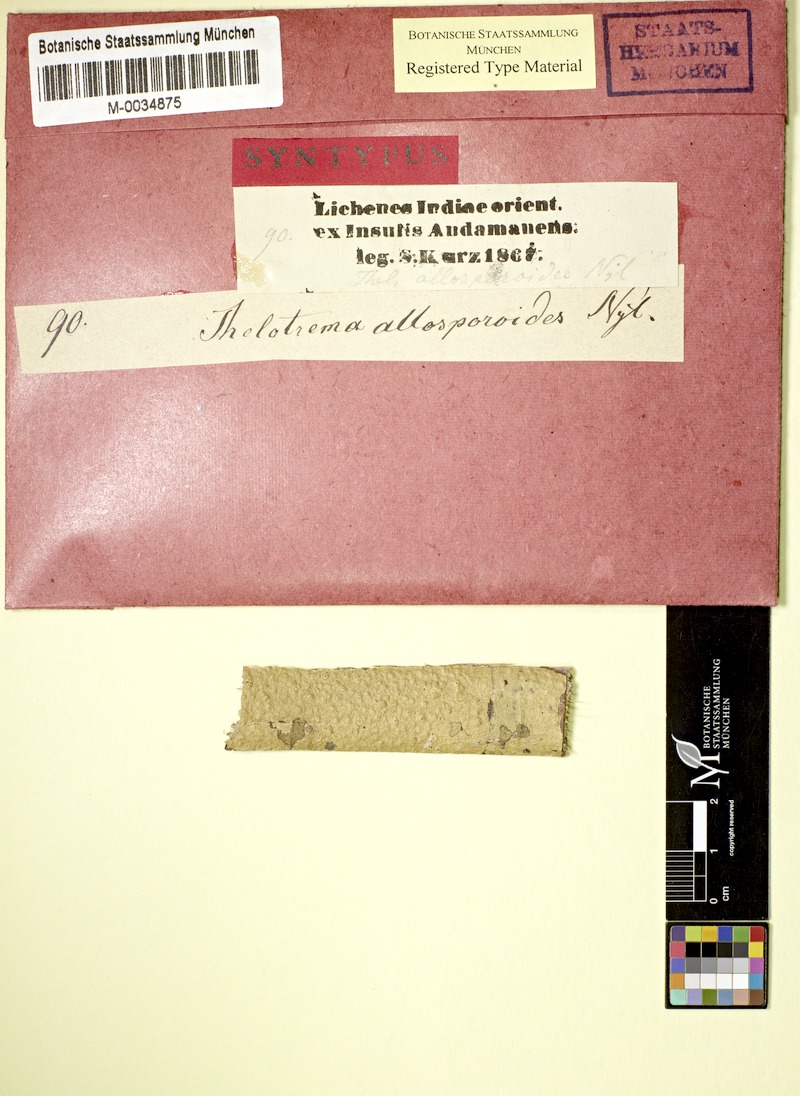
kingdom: Fungi
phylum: Ascomycota
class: Lecanoromycetes
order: Ostropales
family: Graphidaceae
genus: Thelotrema
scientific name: Thelotrema allosporoides
